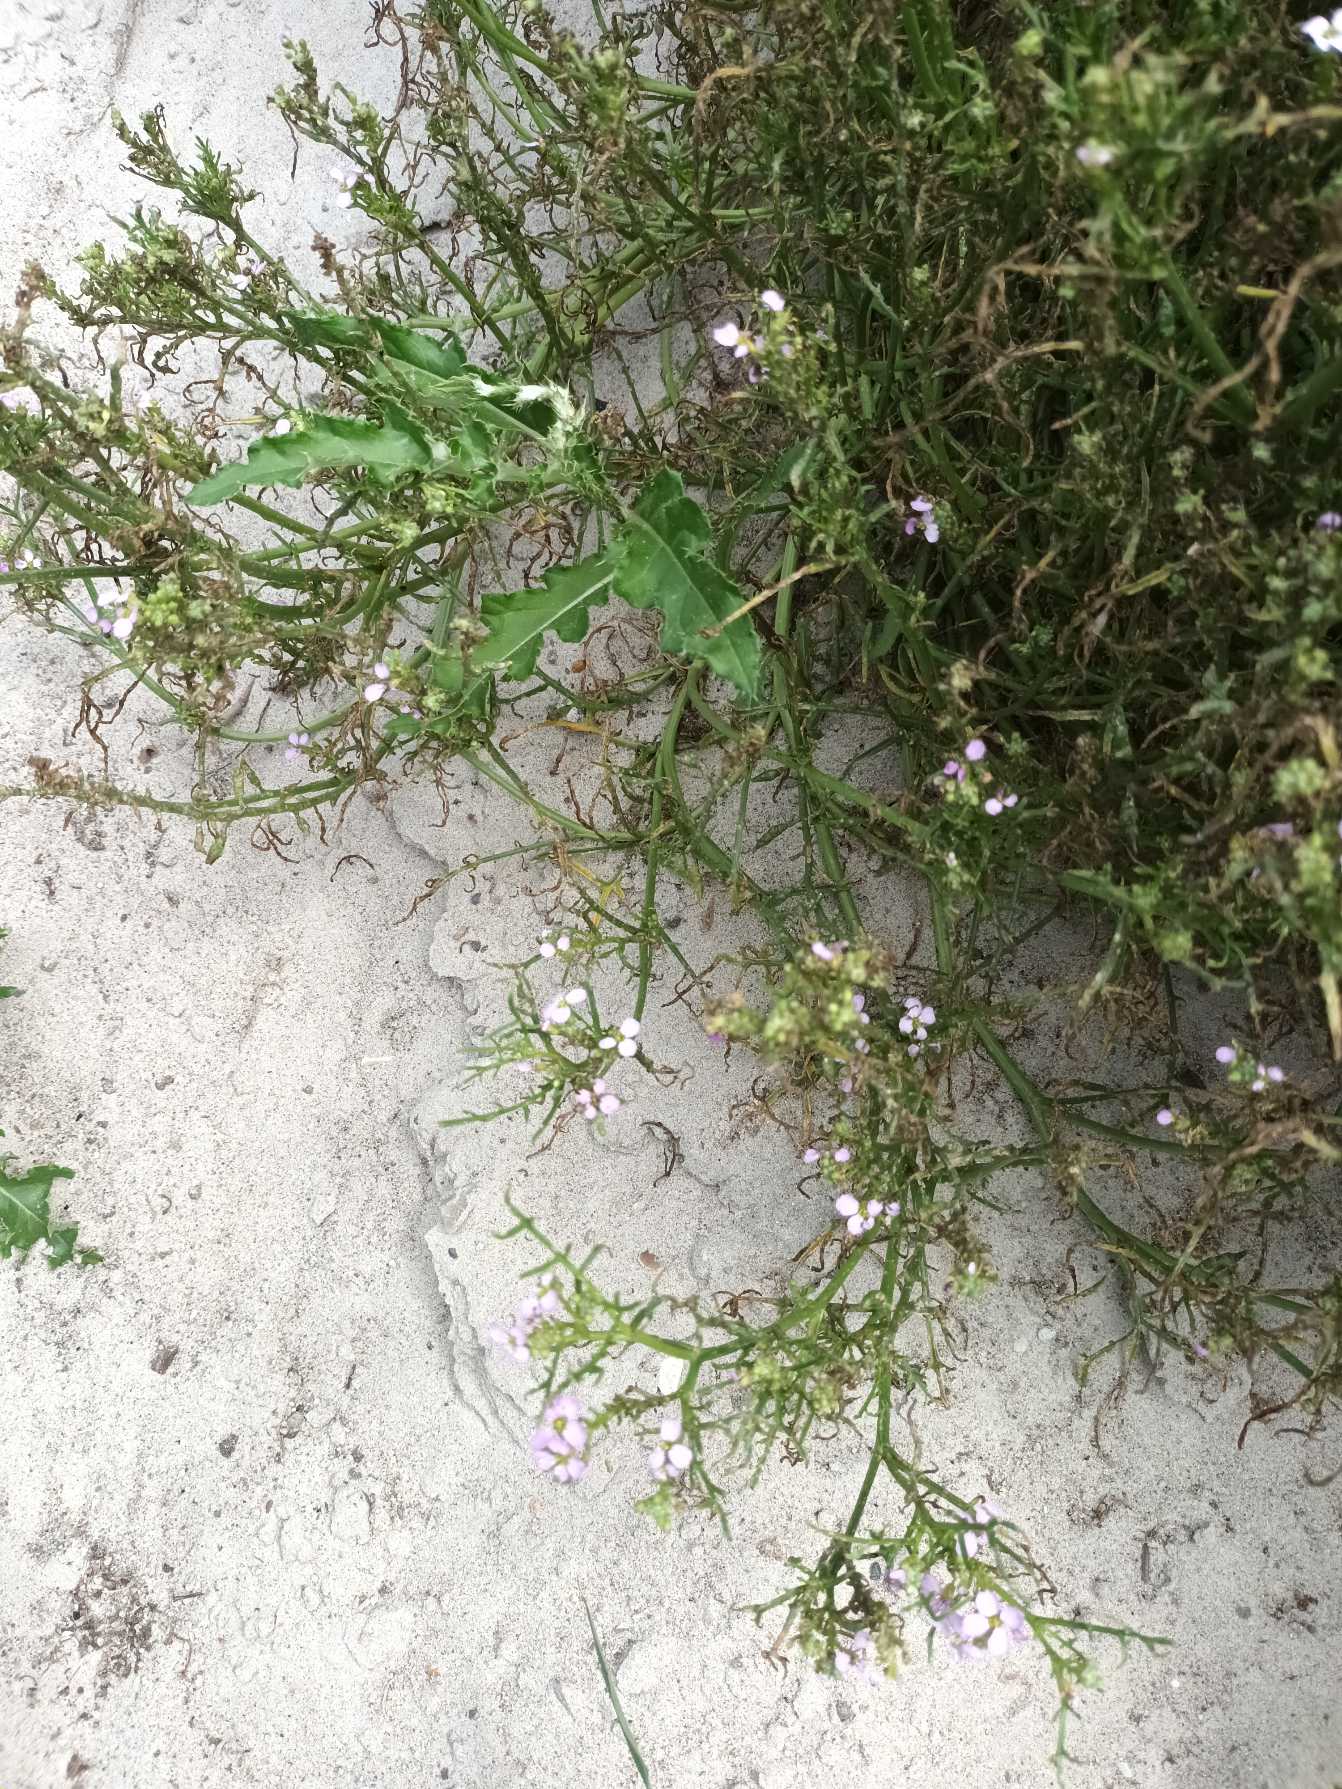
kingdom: Plantae
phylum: Tracheophyta
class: Magnoliopsida
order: Brassicales
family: Brassicaceae
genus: Cakile
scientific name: Cakile maritima
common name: Strandsennep
